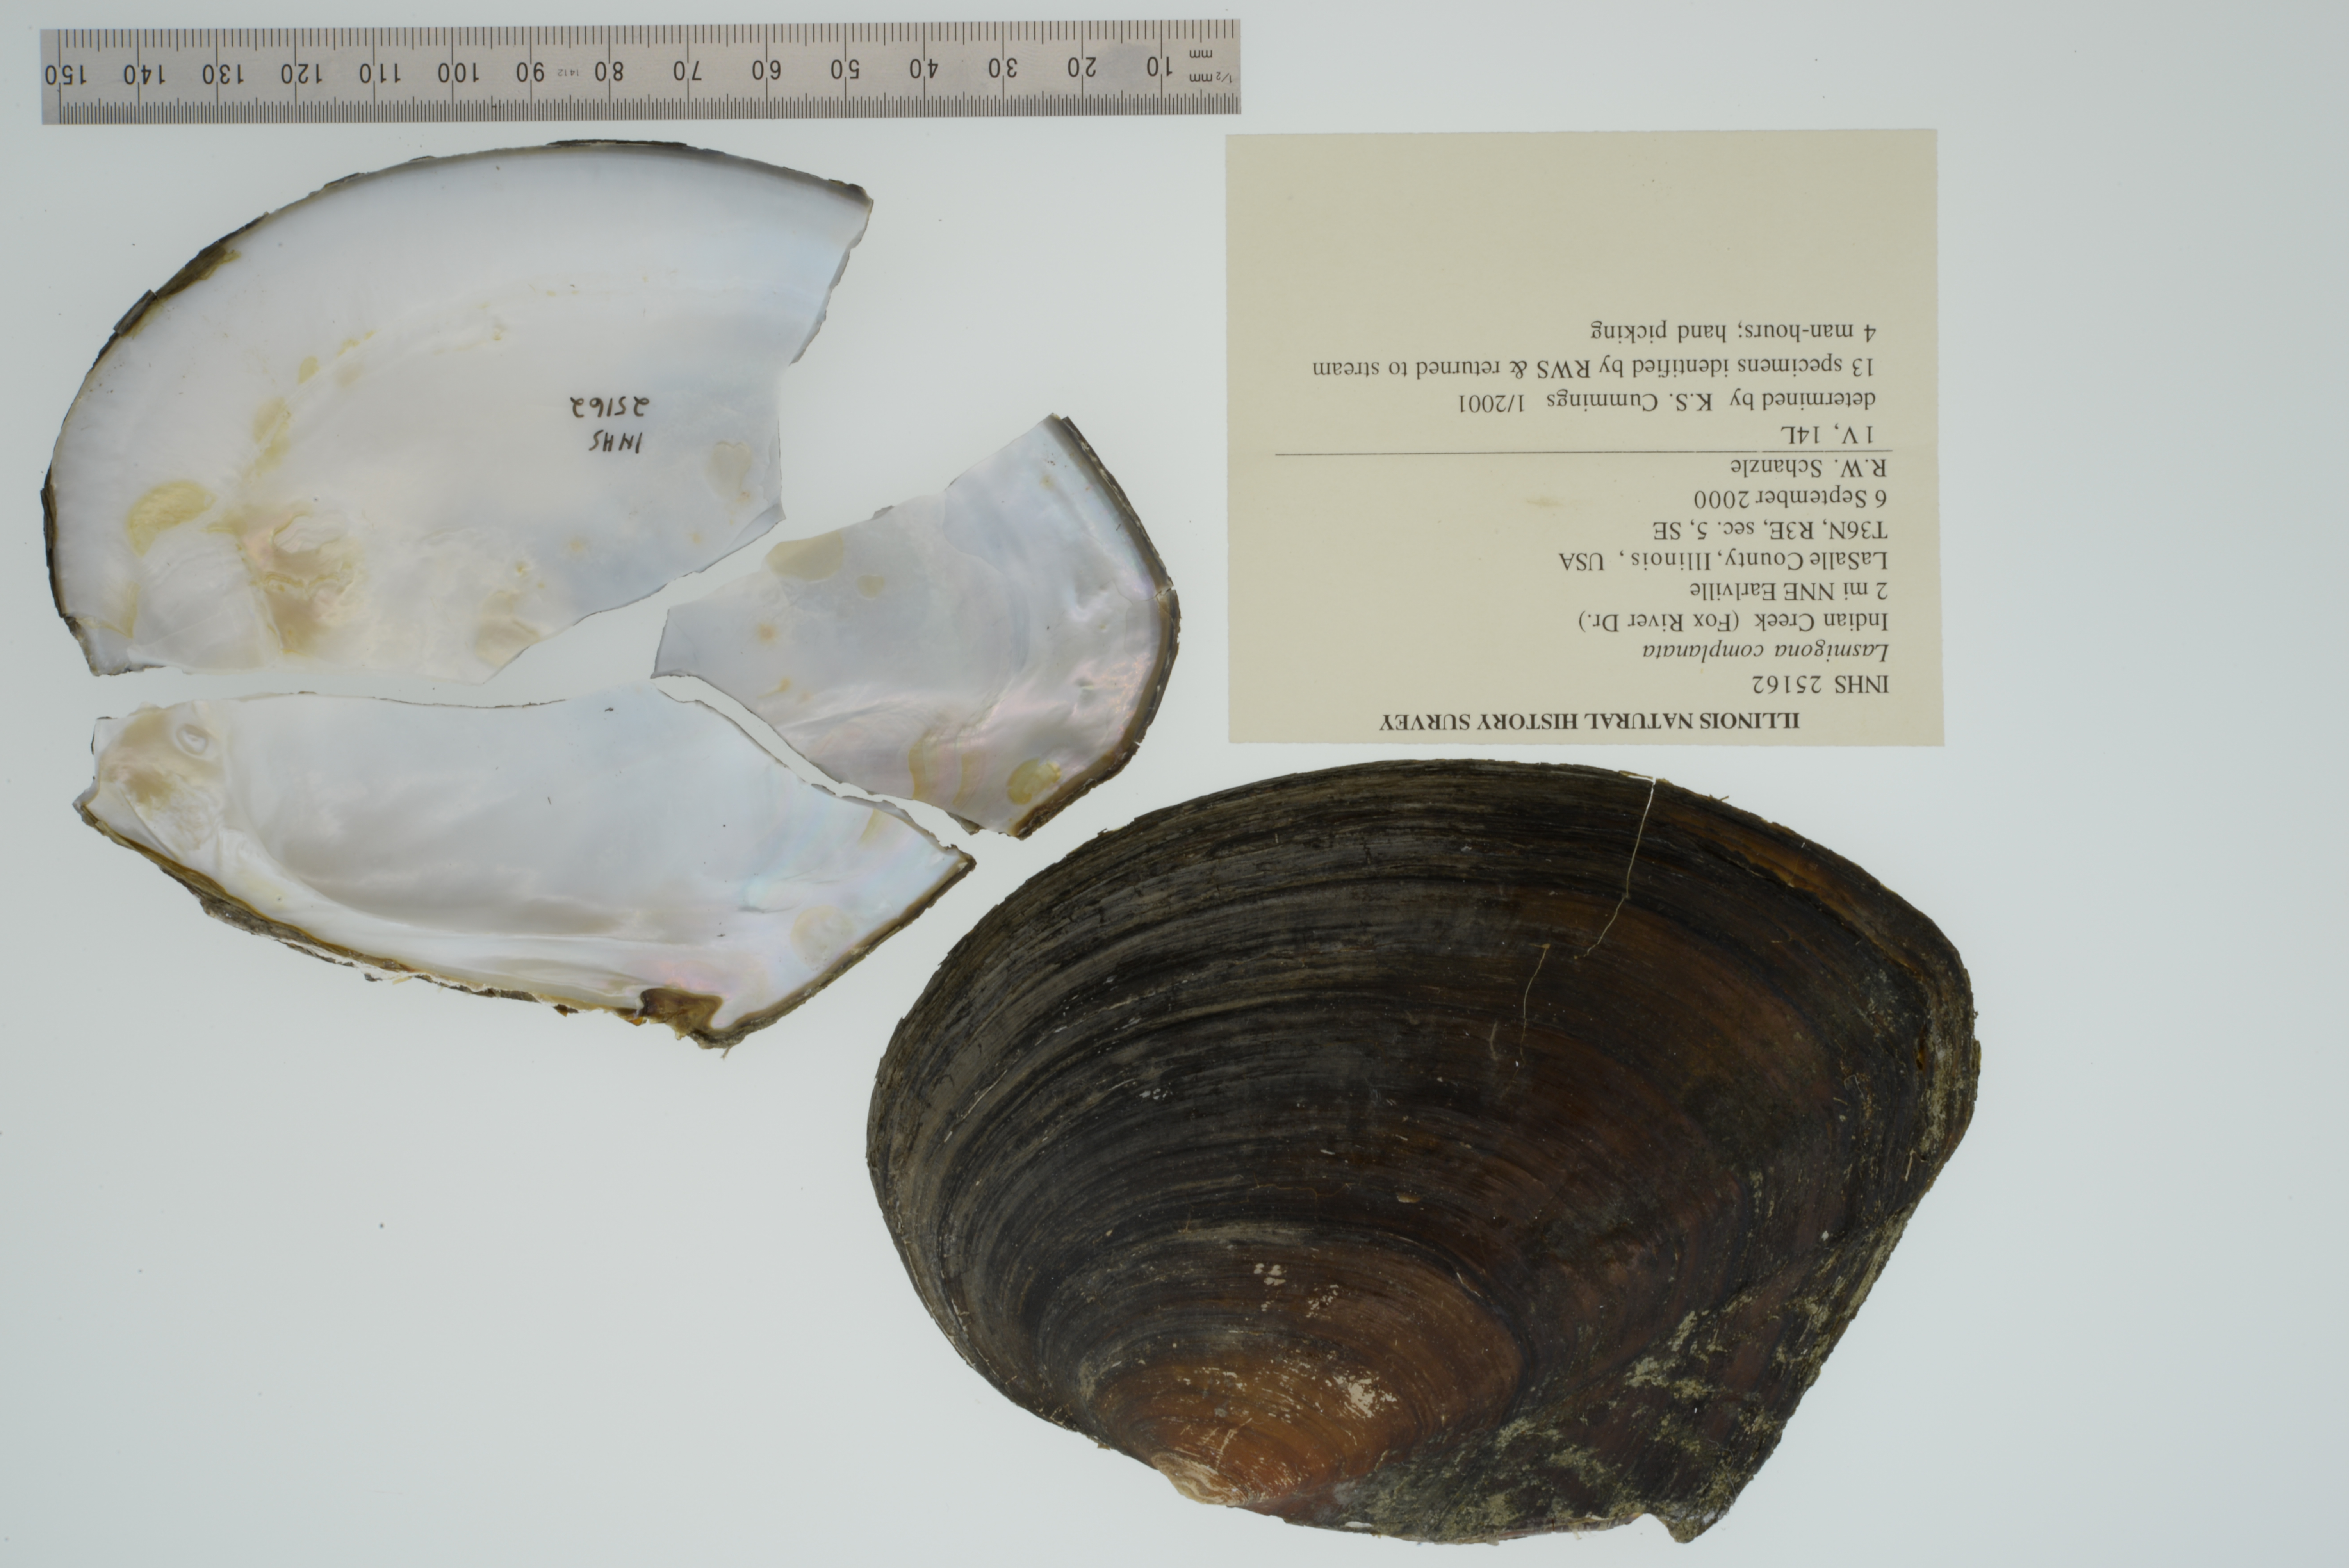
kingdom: Animalia
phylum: Mollusca
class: Bivalvia
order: Unionida
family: Unionidae
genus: Lasmigona
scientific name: Lasmigona complanata
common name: White heelsplitter
